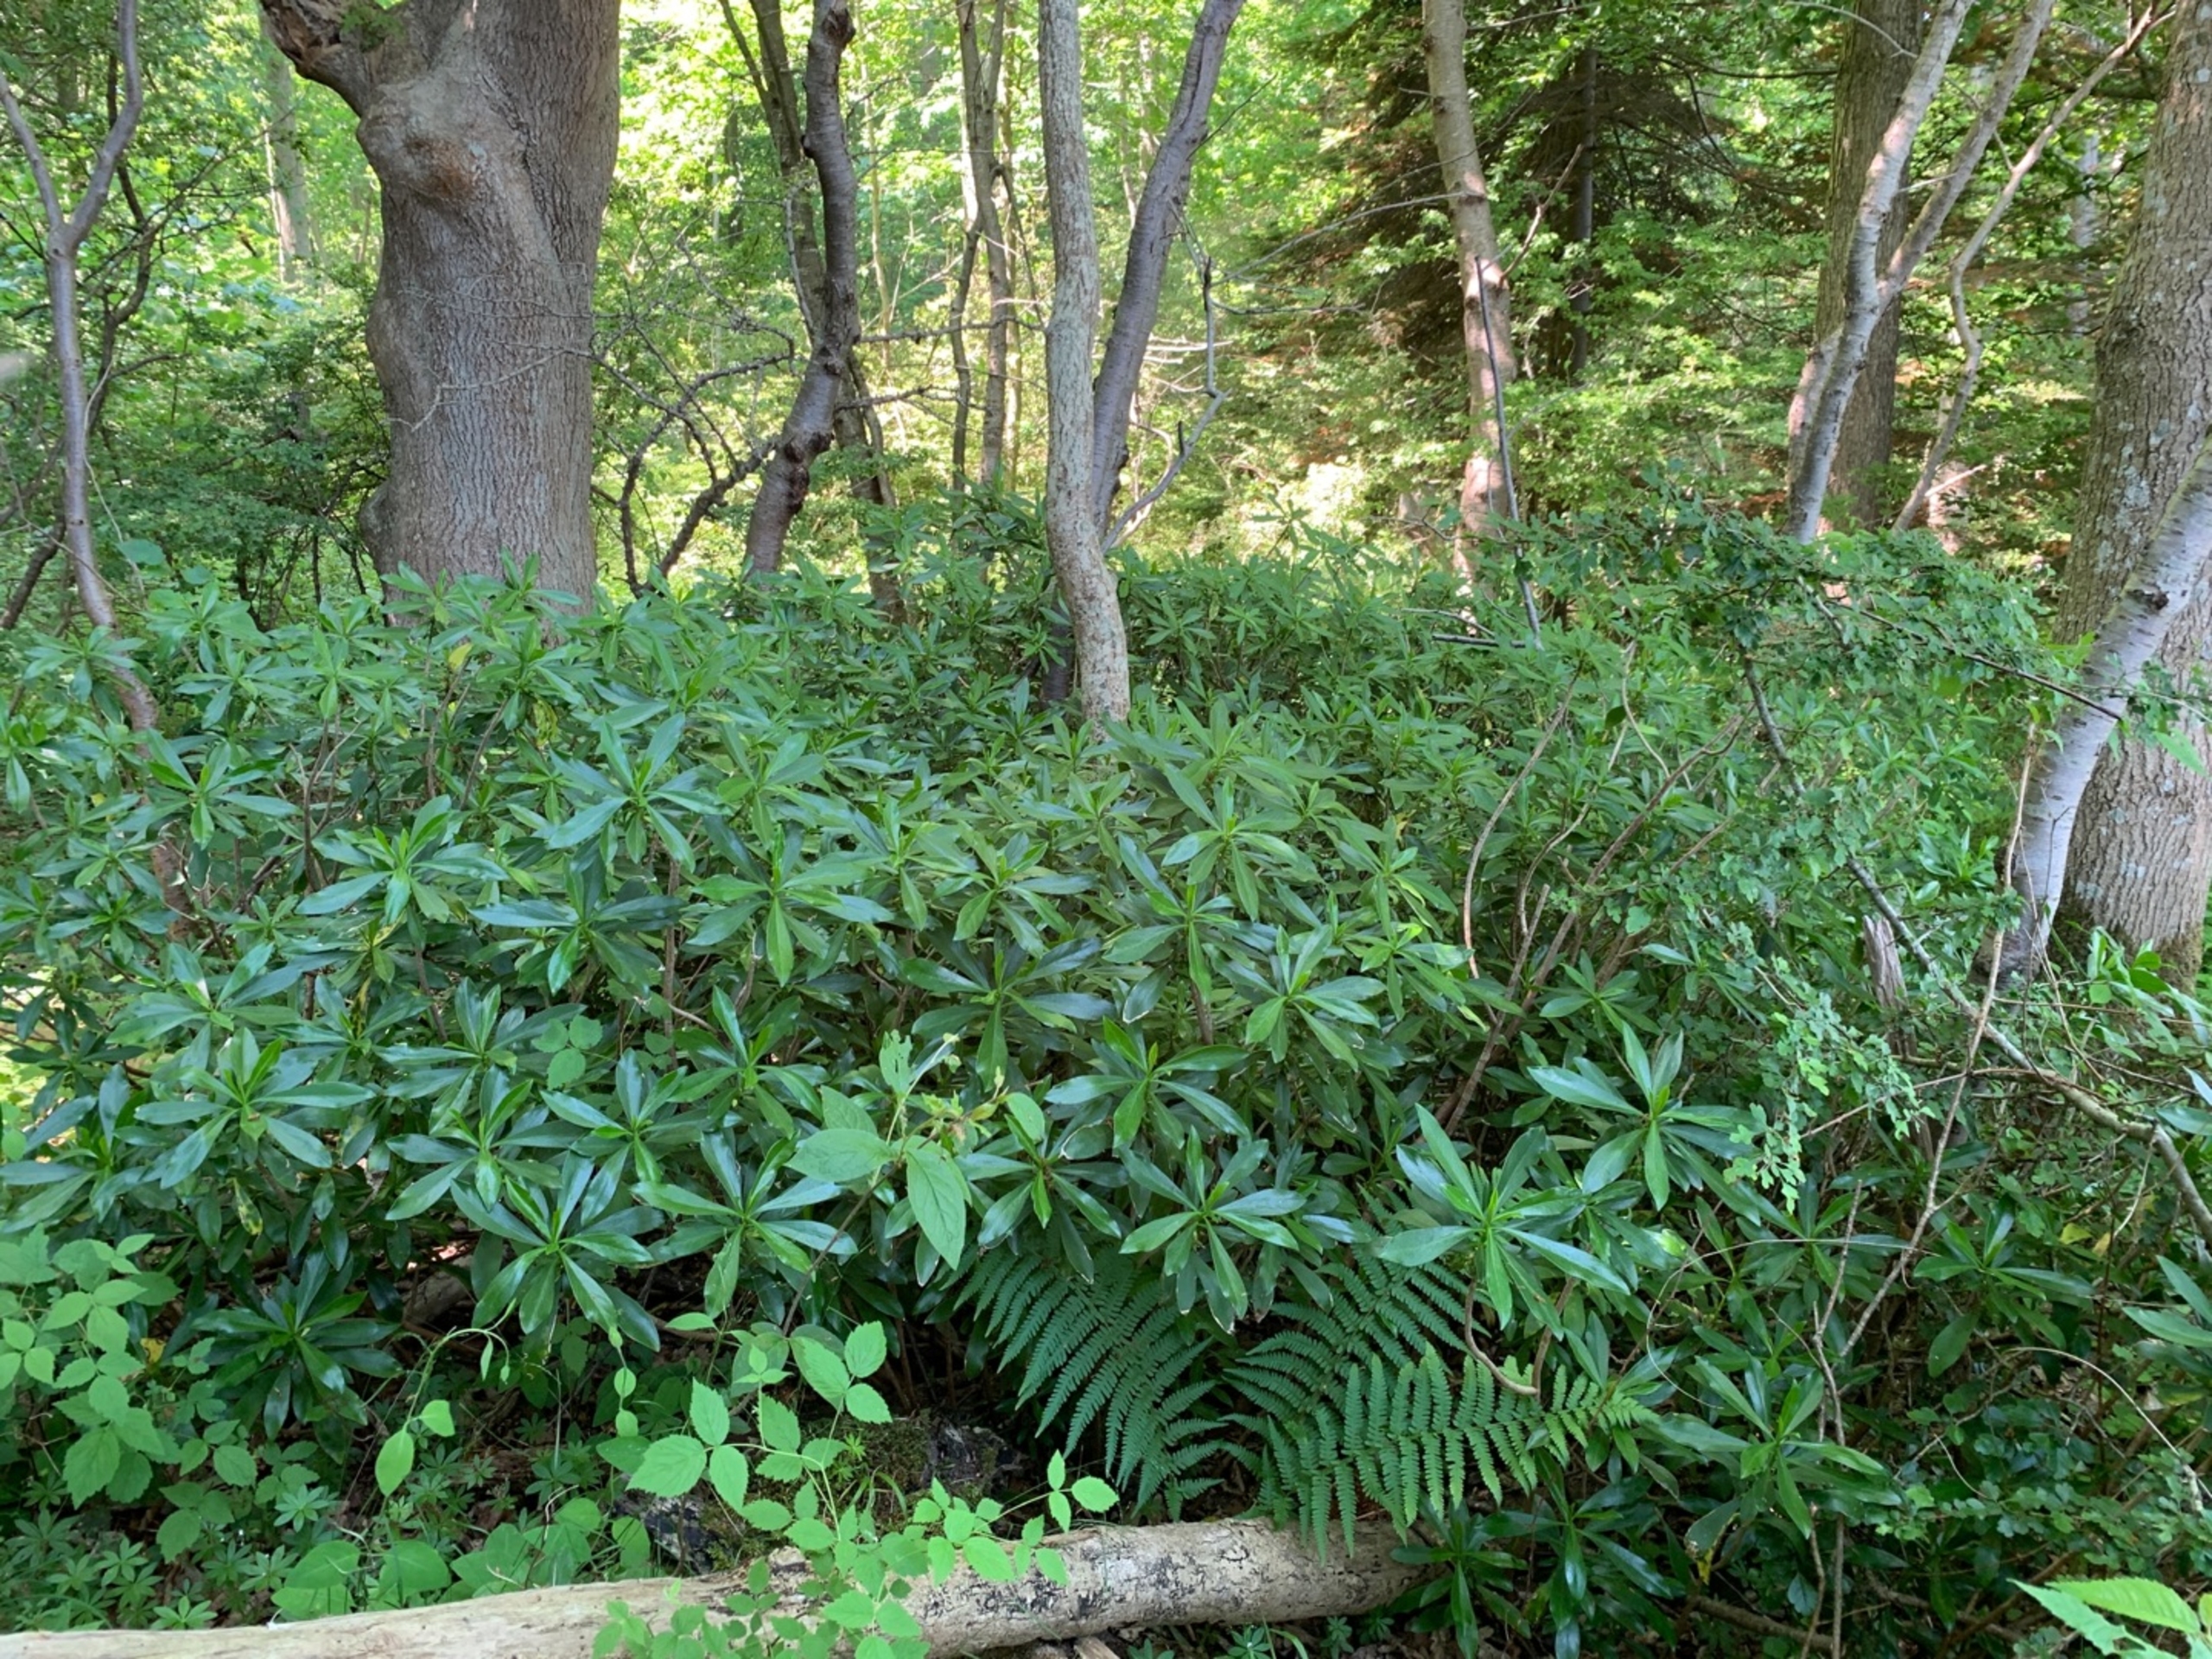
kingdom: Plantae
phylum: Tracheophyta
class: Magnoliopsida
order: Malvales
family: Thymelaeaceae
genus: Daphne
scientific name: Daphne laureola
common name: Laurbær-dafne
